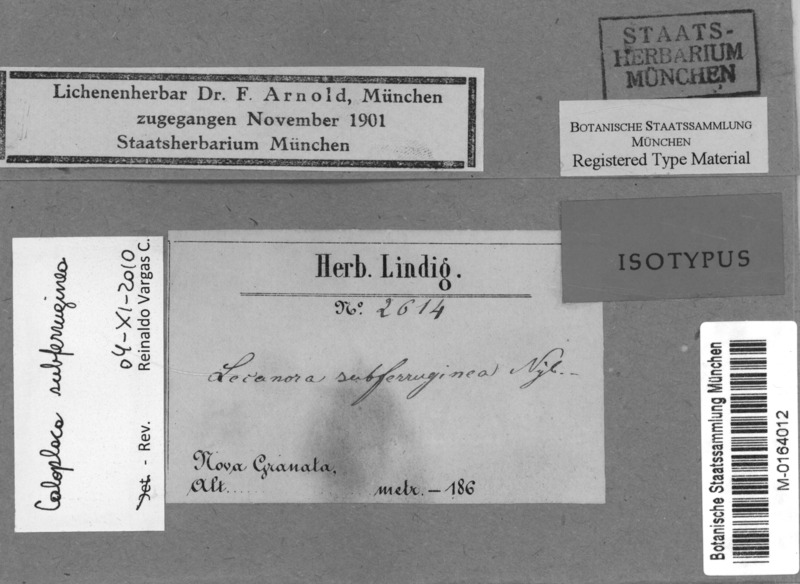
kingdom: Fungi
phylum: Ascomycota
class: Lecanoromycetes
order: Teloschistales
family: Teloschistaceae
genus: Caloplaca
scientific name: Caloplaca brebissonii
